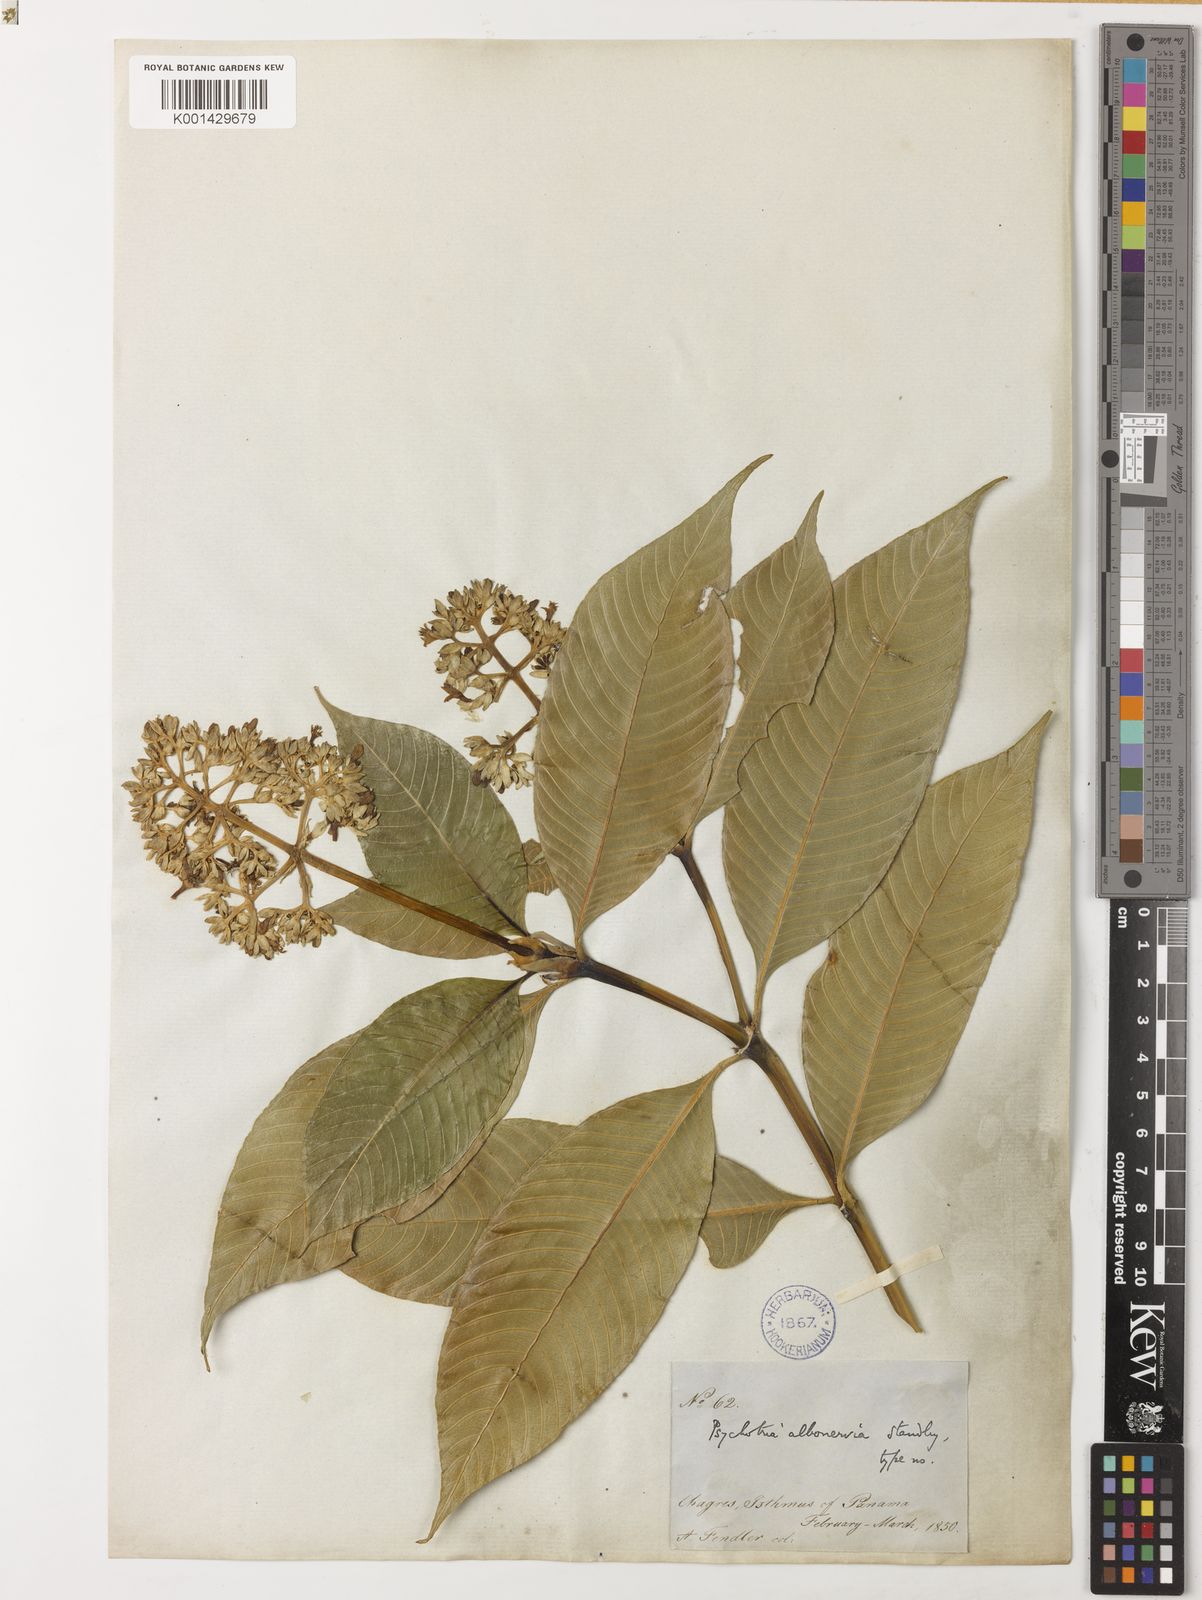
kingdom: Plantae
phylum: Tracheophyta
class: Magnoliopsida
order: Gentianales
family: Rubiaceae
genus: Palicourea
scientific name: Palicourea violacea
